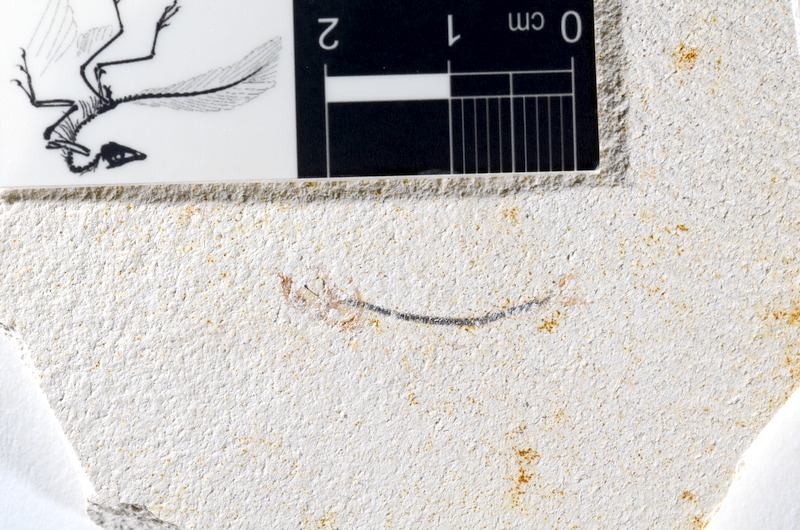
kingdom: Animalia
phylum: Chordata
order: Salmoniformes
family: Orthogonikleithridae
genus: Orthogonikleithrus
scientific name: Orthogonikleithrus hoelli
